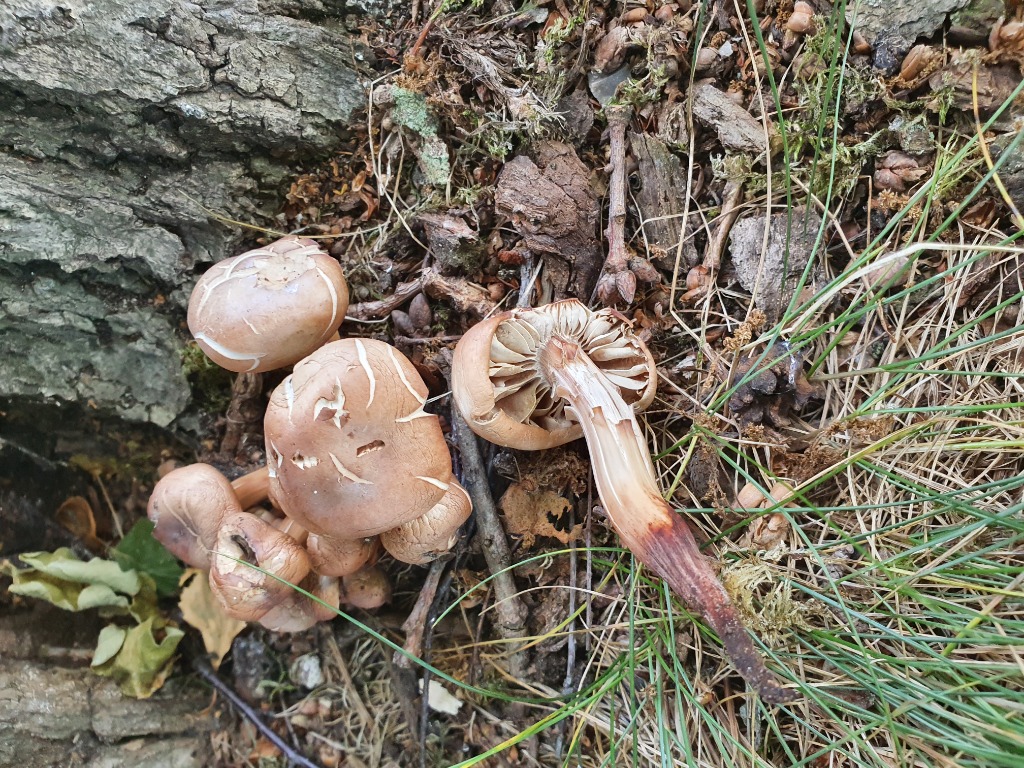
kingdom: Fungi
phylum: Basidiomycota
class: Agaricomycetes
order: Agaricales
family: Omphalotaceae
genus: Gymnopus
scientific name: Gymnopus fusipes
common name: tenstokket fladhat
